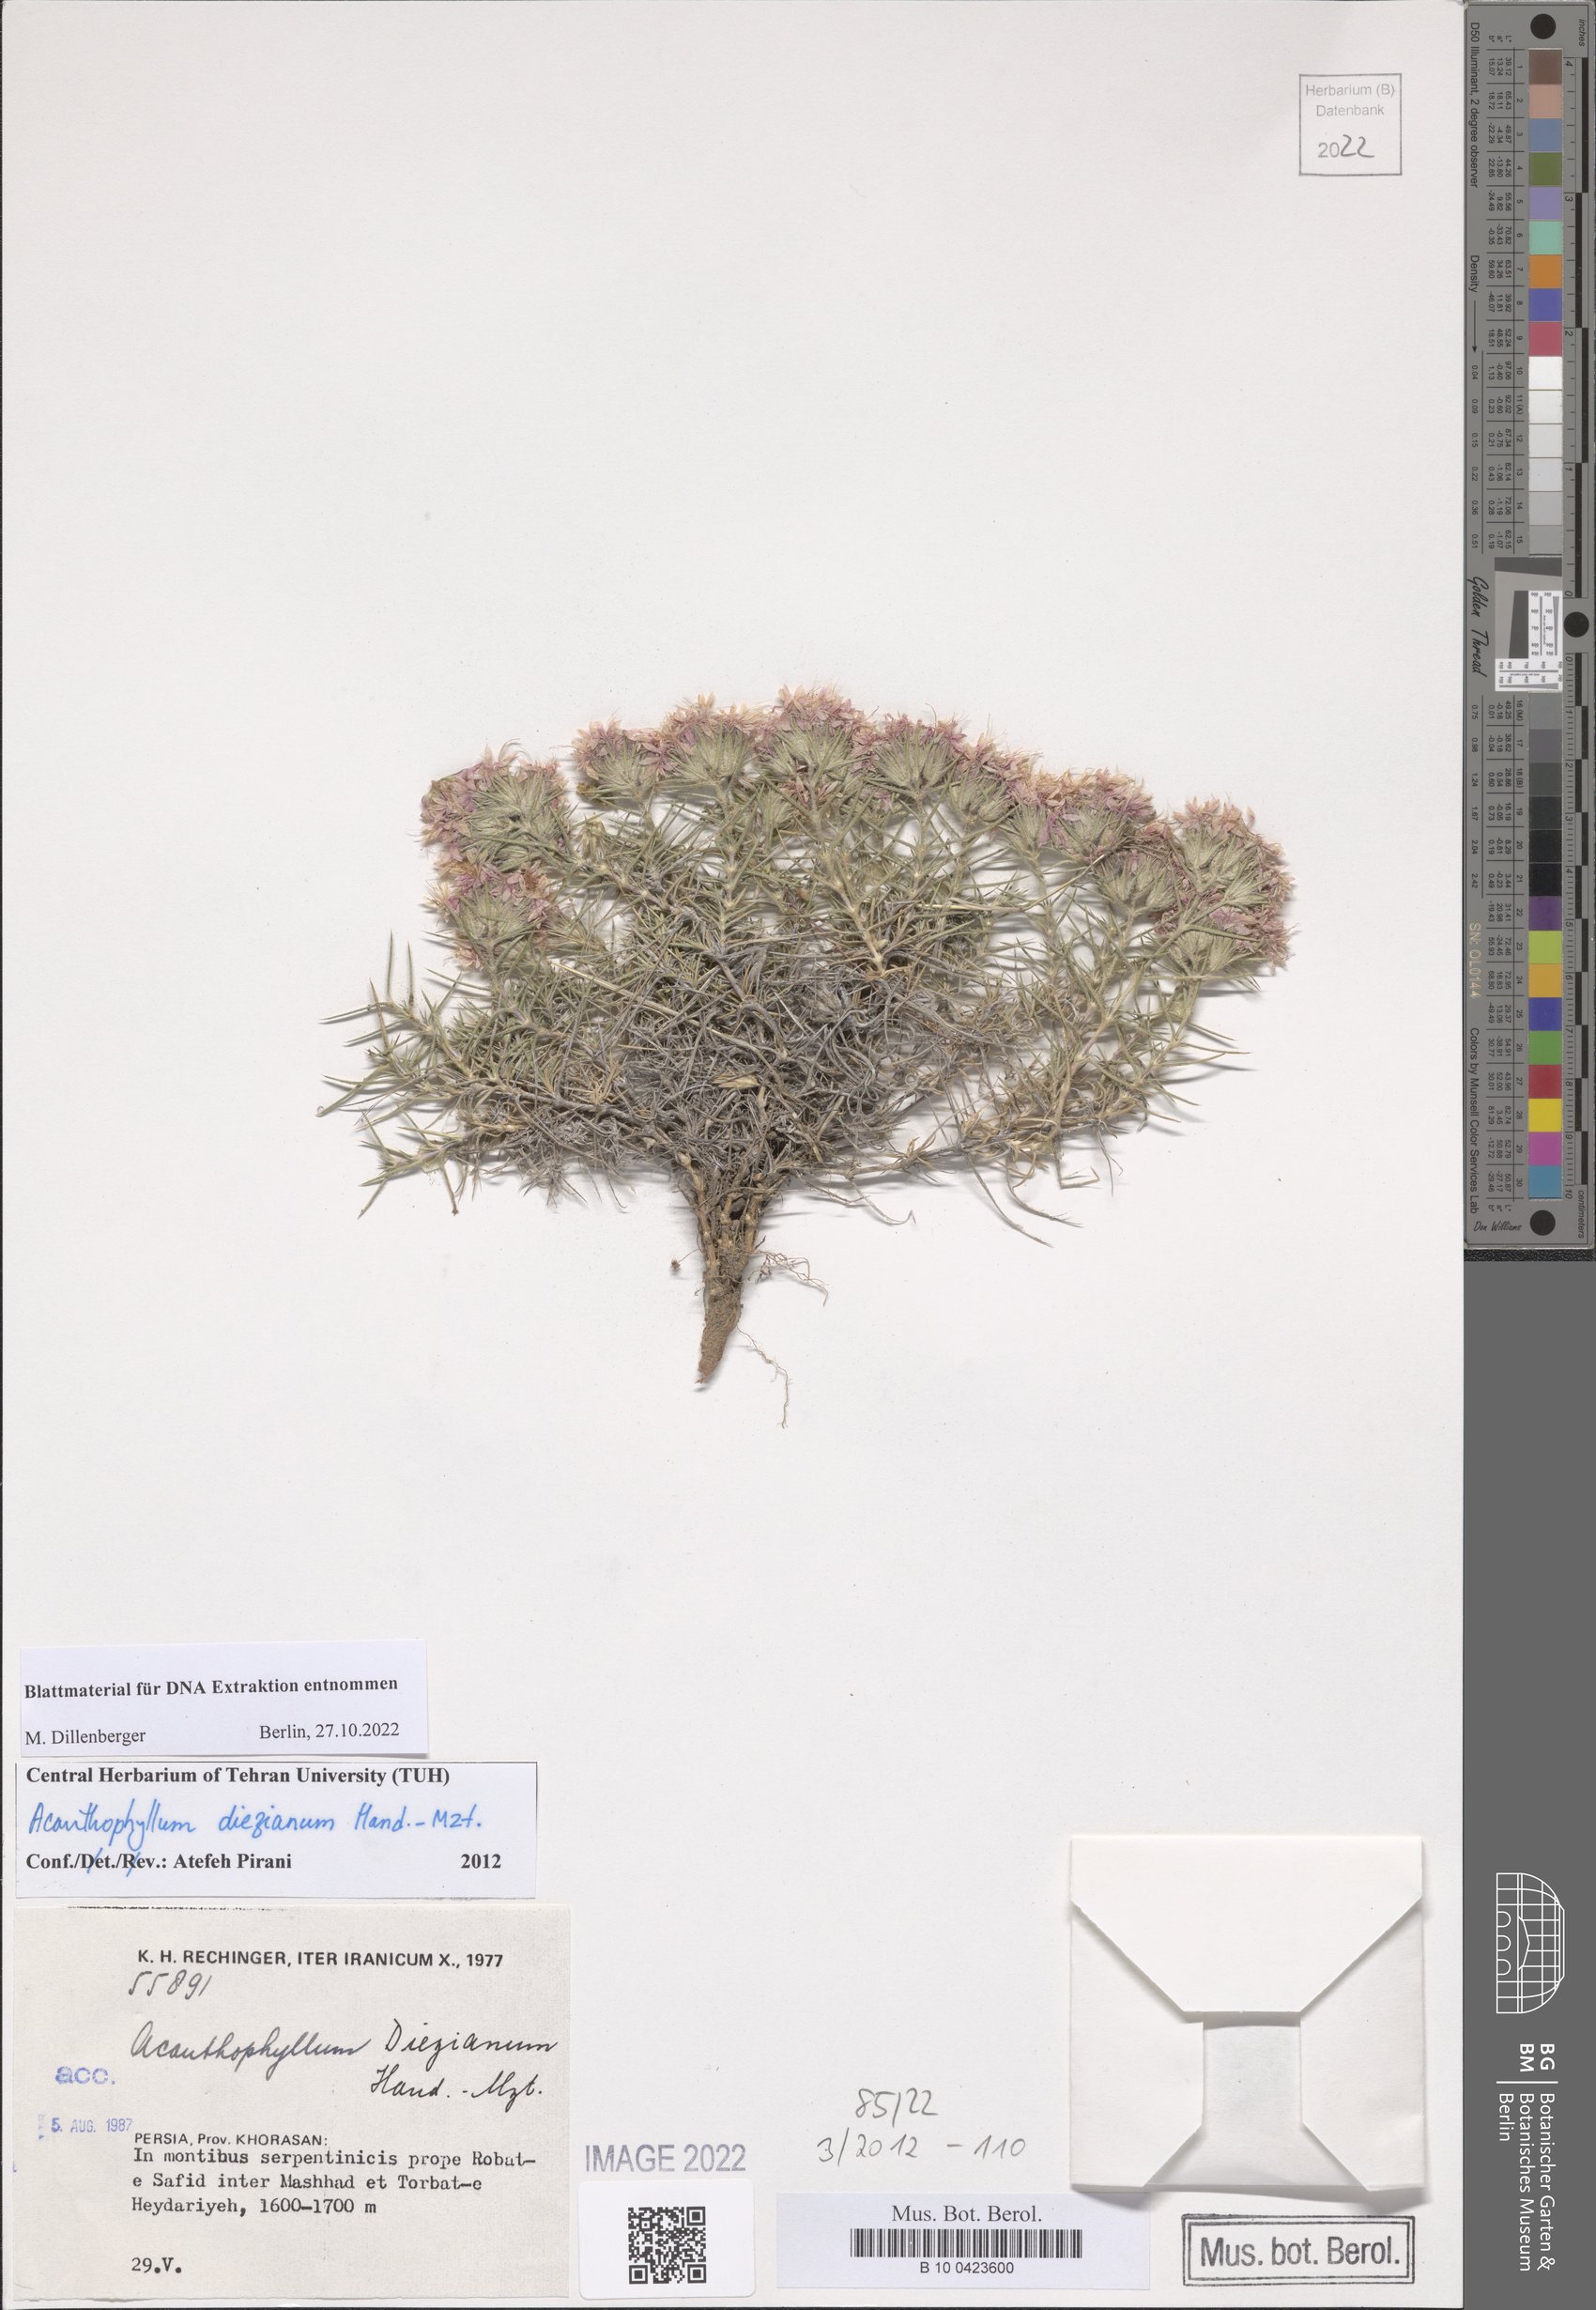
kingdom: Plantae
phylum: Tracheophyta
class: Magnoliopsida
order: Caryophyllales
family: Caryophyllaceae
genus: Acanthophyllum
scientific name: Acanthophyllum diezianum
